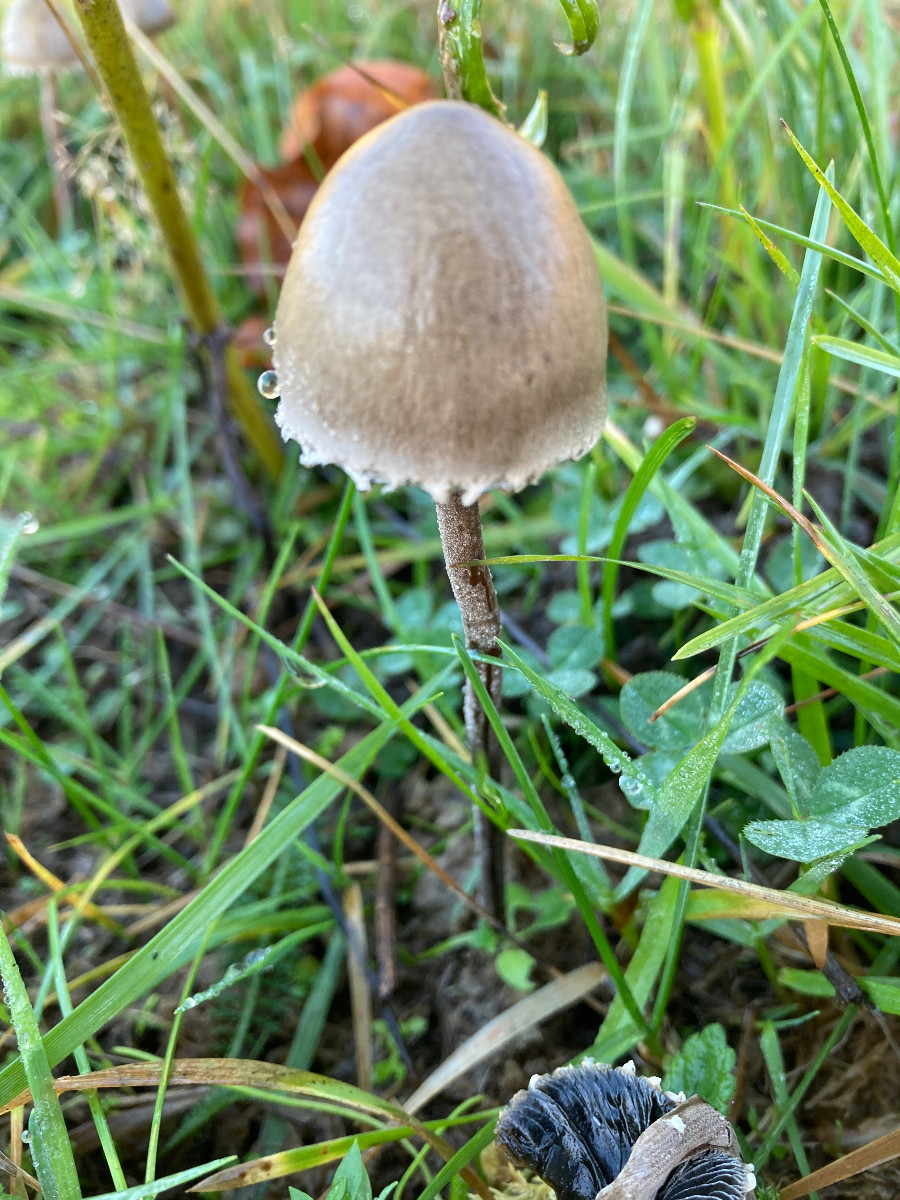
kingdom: Fungi
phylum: Basidiomycota
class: Agaricomycetes
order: Agaricales
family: Bolbitiaceae
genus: Panaeolus
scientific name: Panaeolus papilionaceus
